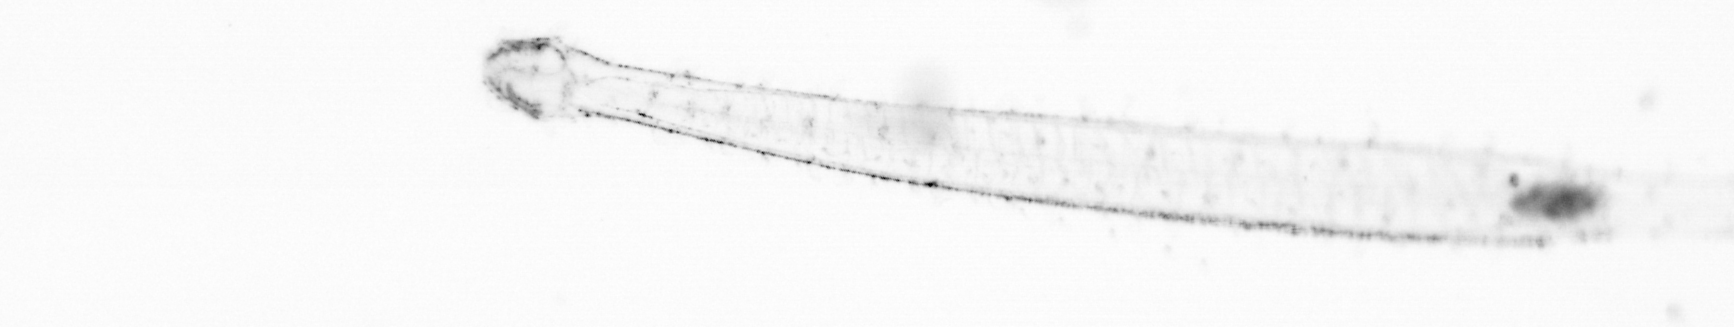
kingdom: Animalia
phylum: Chaetognatha
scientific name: Chaetognatha
